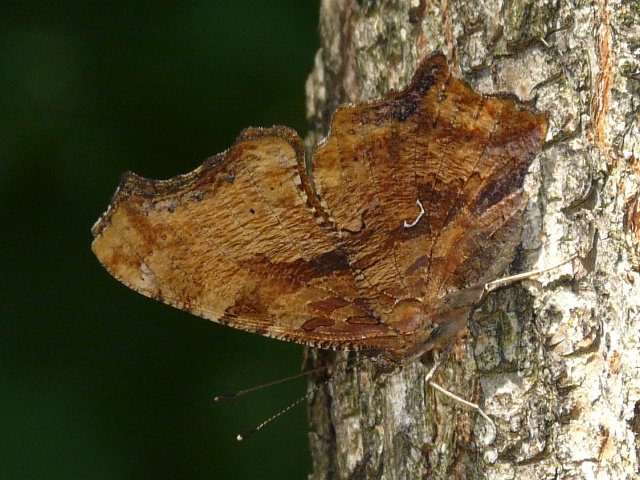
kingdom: Animalia
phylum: Arthropoda
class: Insecta
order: Lepidoptera
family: Nymphalidae
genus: Polygonia
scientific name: Polygonia comma
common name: Eastern Comma
